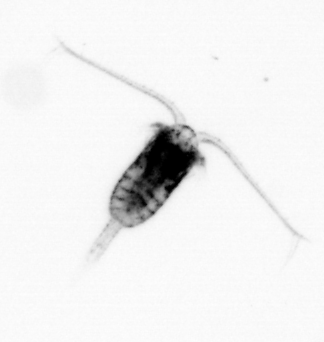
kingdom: Animalia
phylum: Arthropoda
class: Copepoda
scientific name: Copepoda
